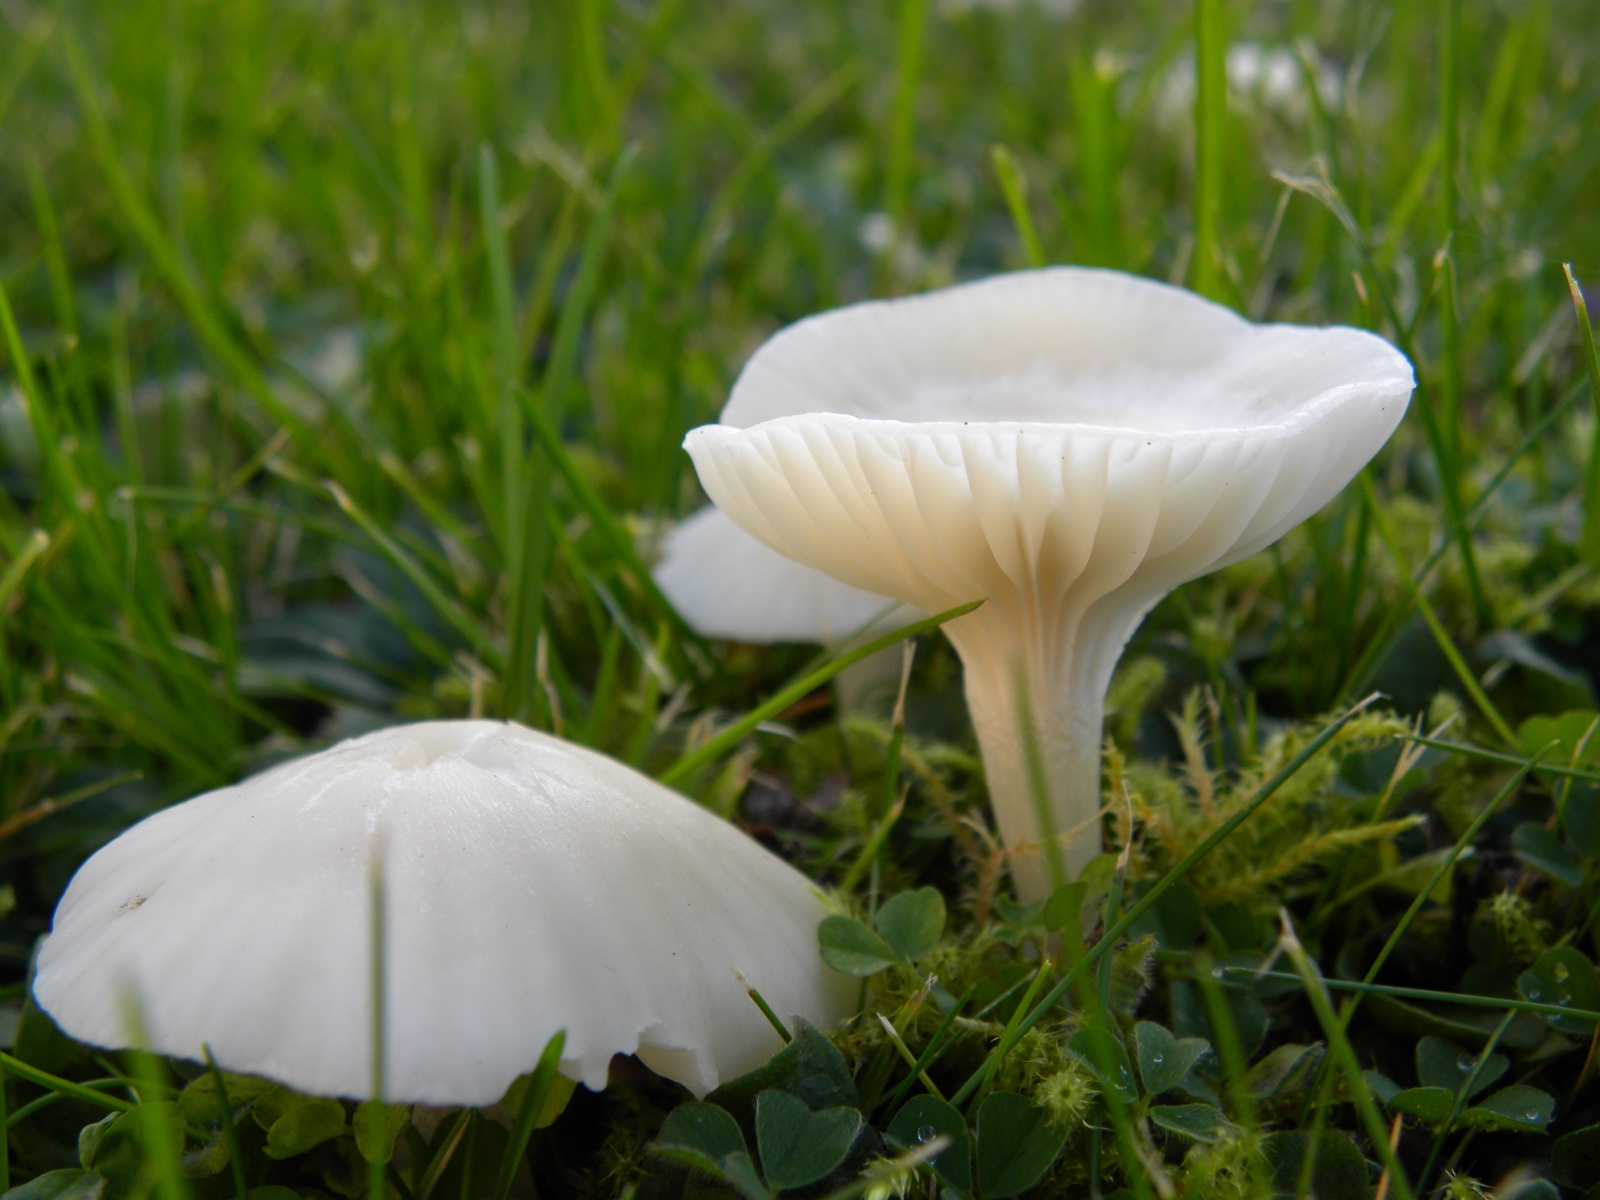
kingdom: Fungi
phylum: Basidiomycota
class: Agaricomycetes
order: Agaricales
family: Hygrophoraceae
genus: Cuphophyllus
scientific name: Cuphophyllus virgineus
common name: snehvid vokshat
